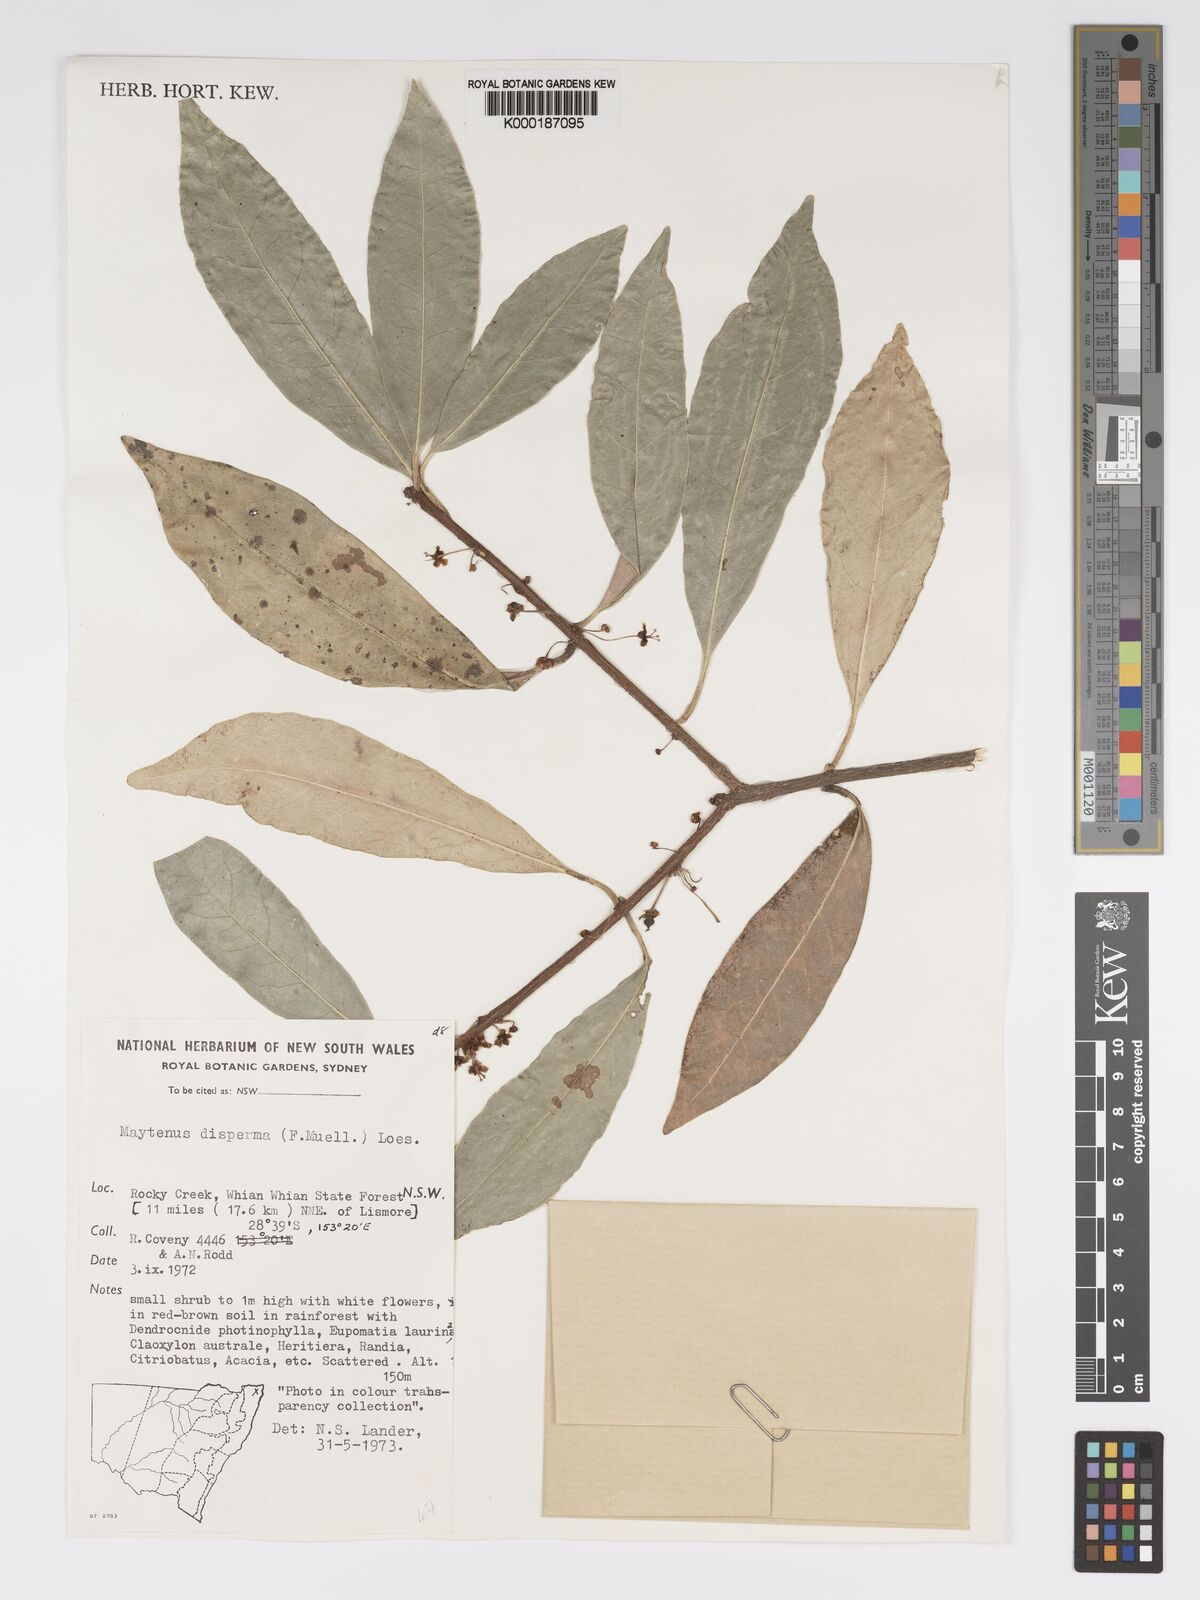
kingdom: Plantae
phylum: Tracheophyta
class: Magnoliopsida
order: Malpighiales
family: Phyllanthaceae
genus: Actephila
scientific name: Actephila lindleyi
